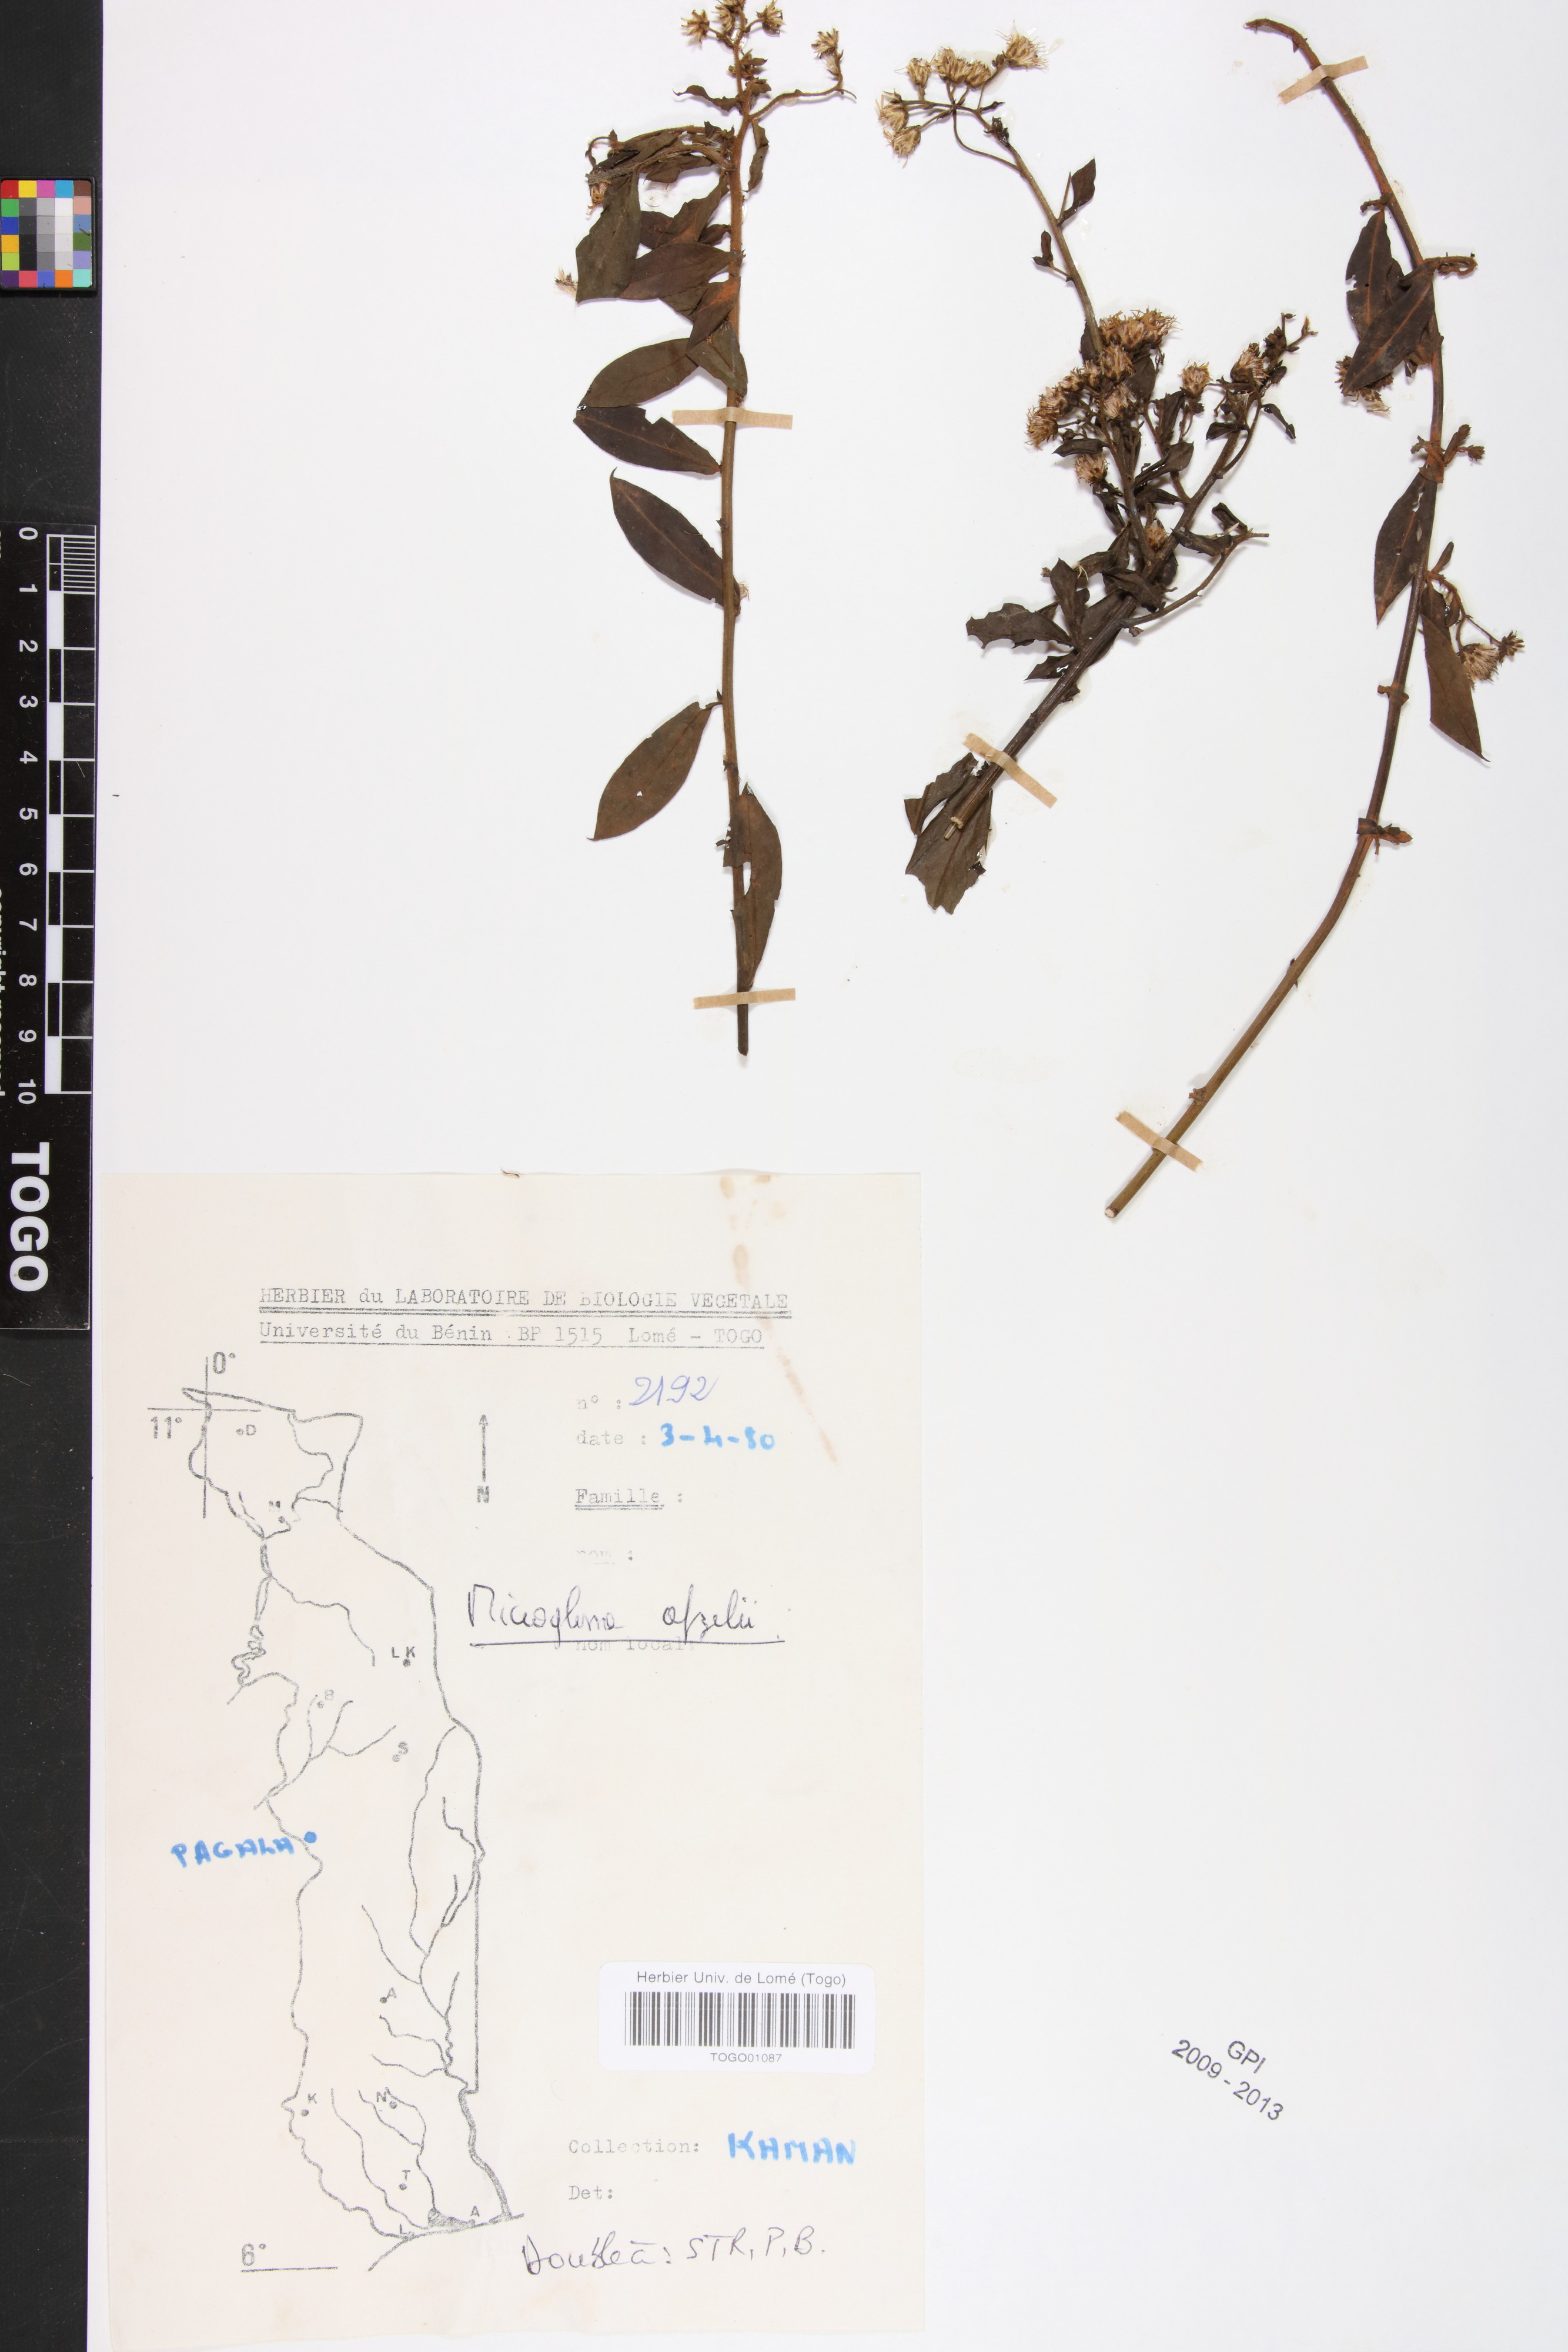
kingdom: Plantae
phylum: Tracheophyta
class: Magnoliopsida
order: Asterales
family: Asteraceae
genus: Microglossa
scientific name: Microglossa afzelii
